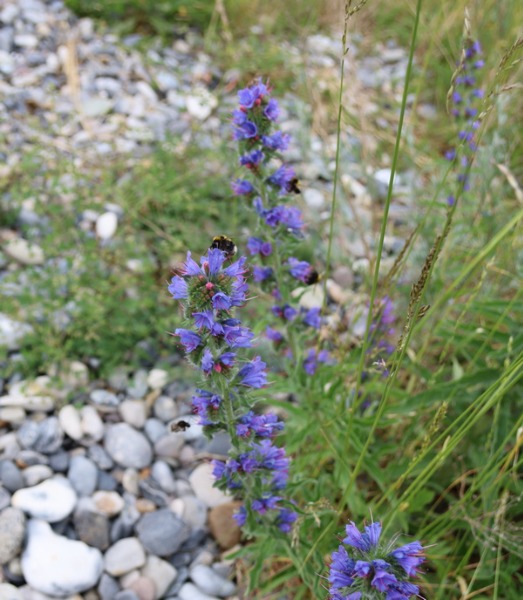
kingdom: Plantae
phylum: Tracheophyta
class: Magnoliopsida
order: Boraginales
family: Boraginaceae
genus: Echium
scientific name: Echium vulgare
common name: Slangehoved
